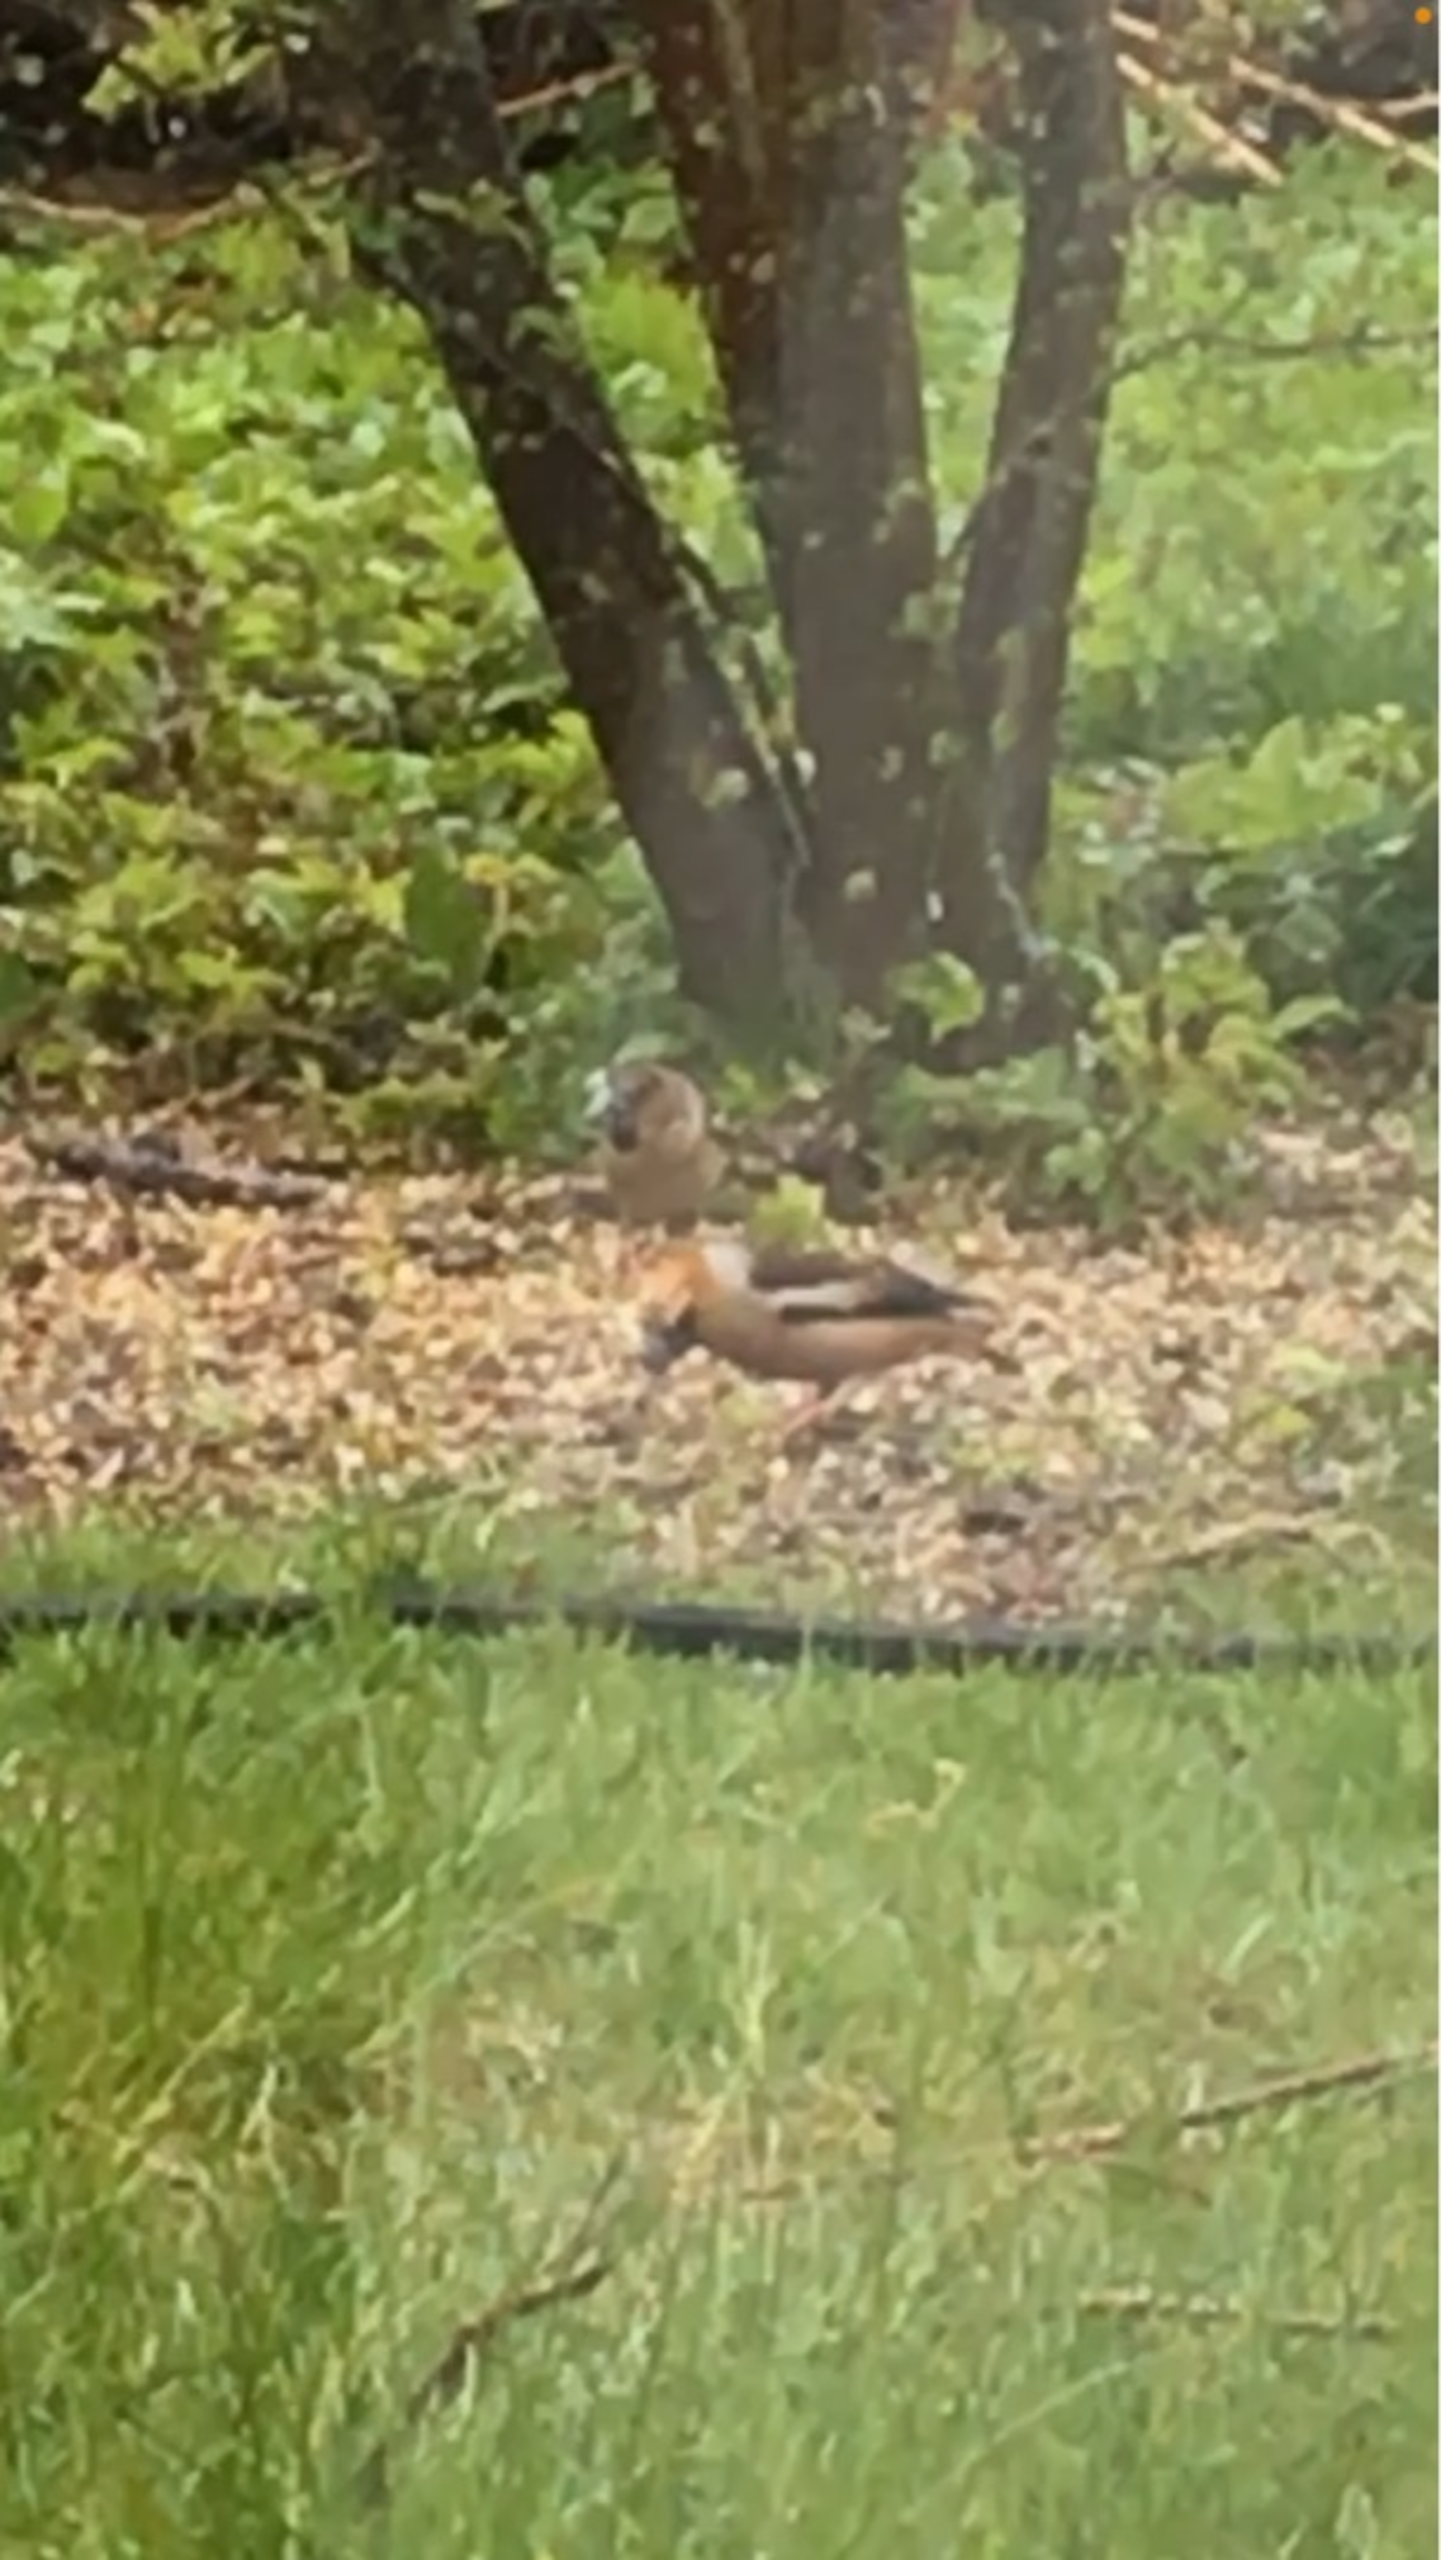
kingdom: Animalia
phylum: Chordata
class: Aves
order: Passeriformes
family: Fringillidae
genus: Coccothraustes
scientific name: Coccothraustes coccothraustes
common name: Kernebider
